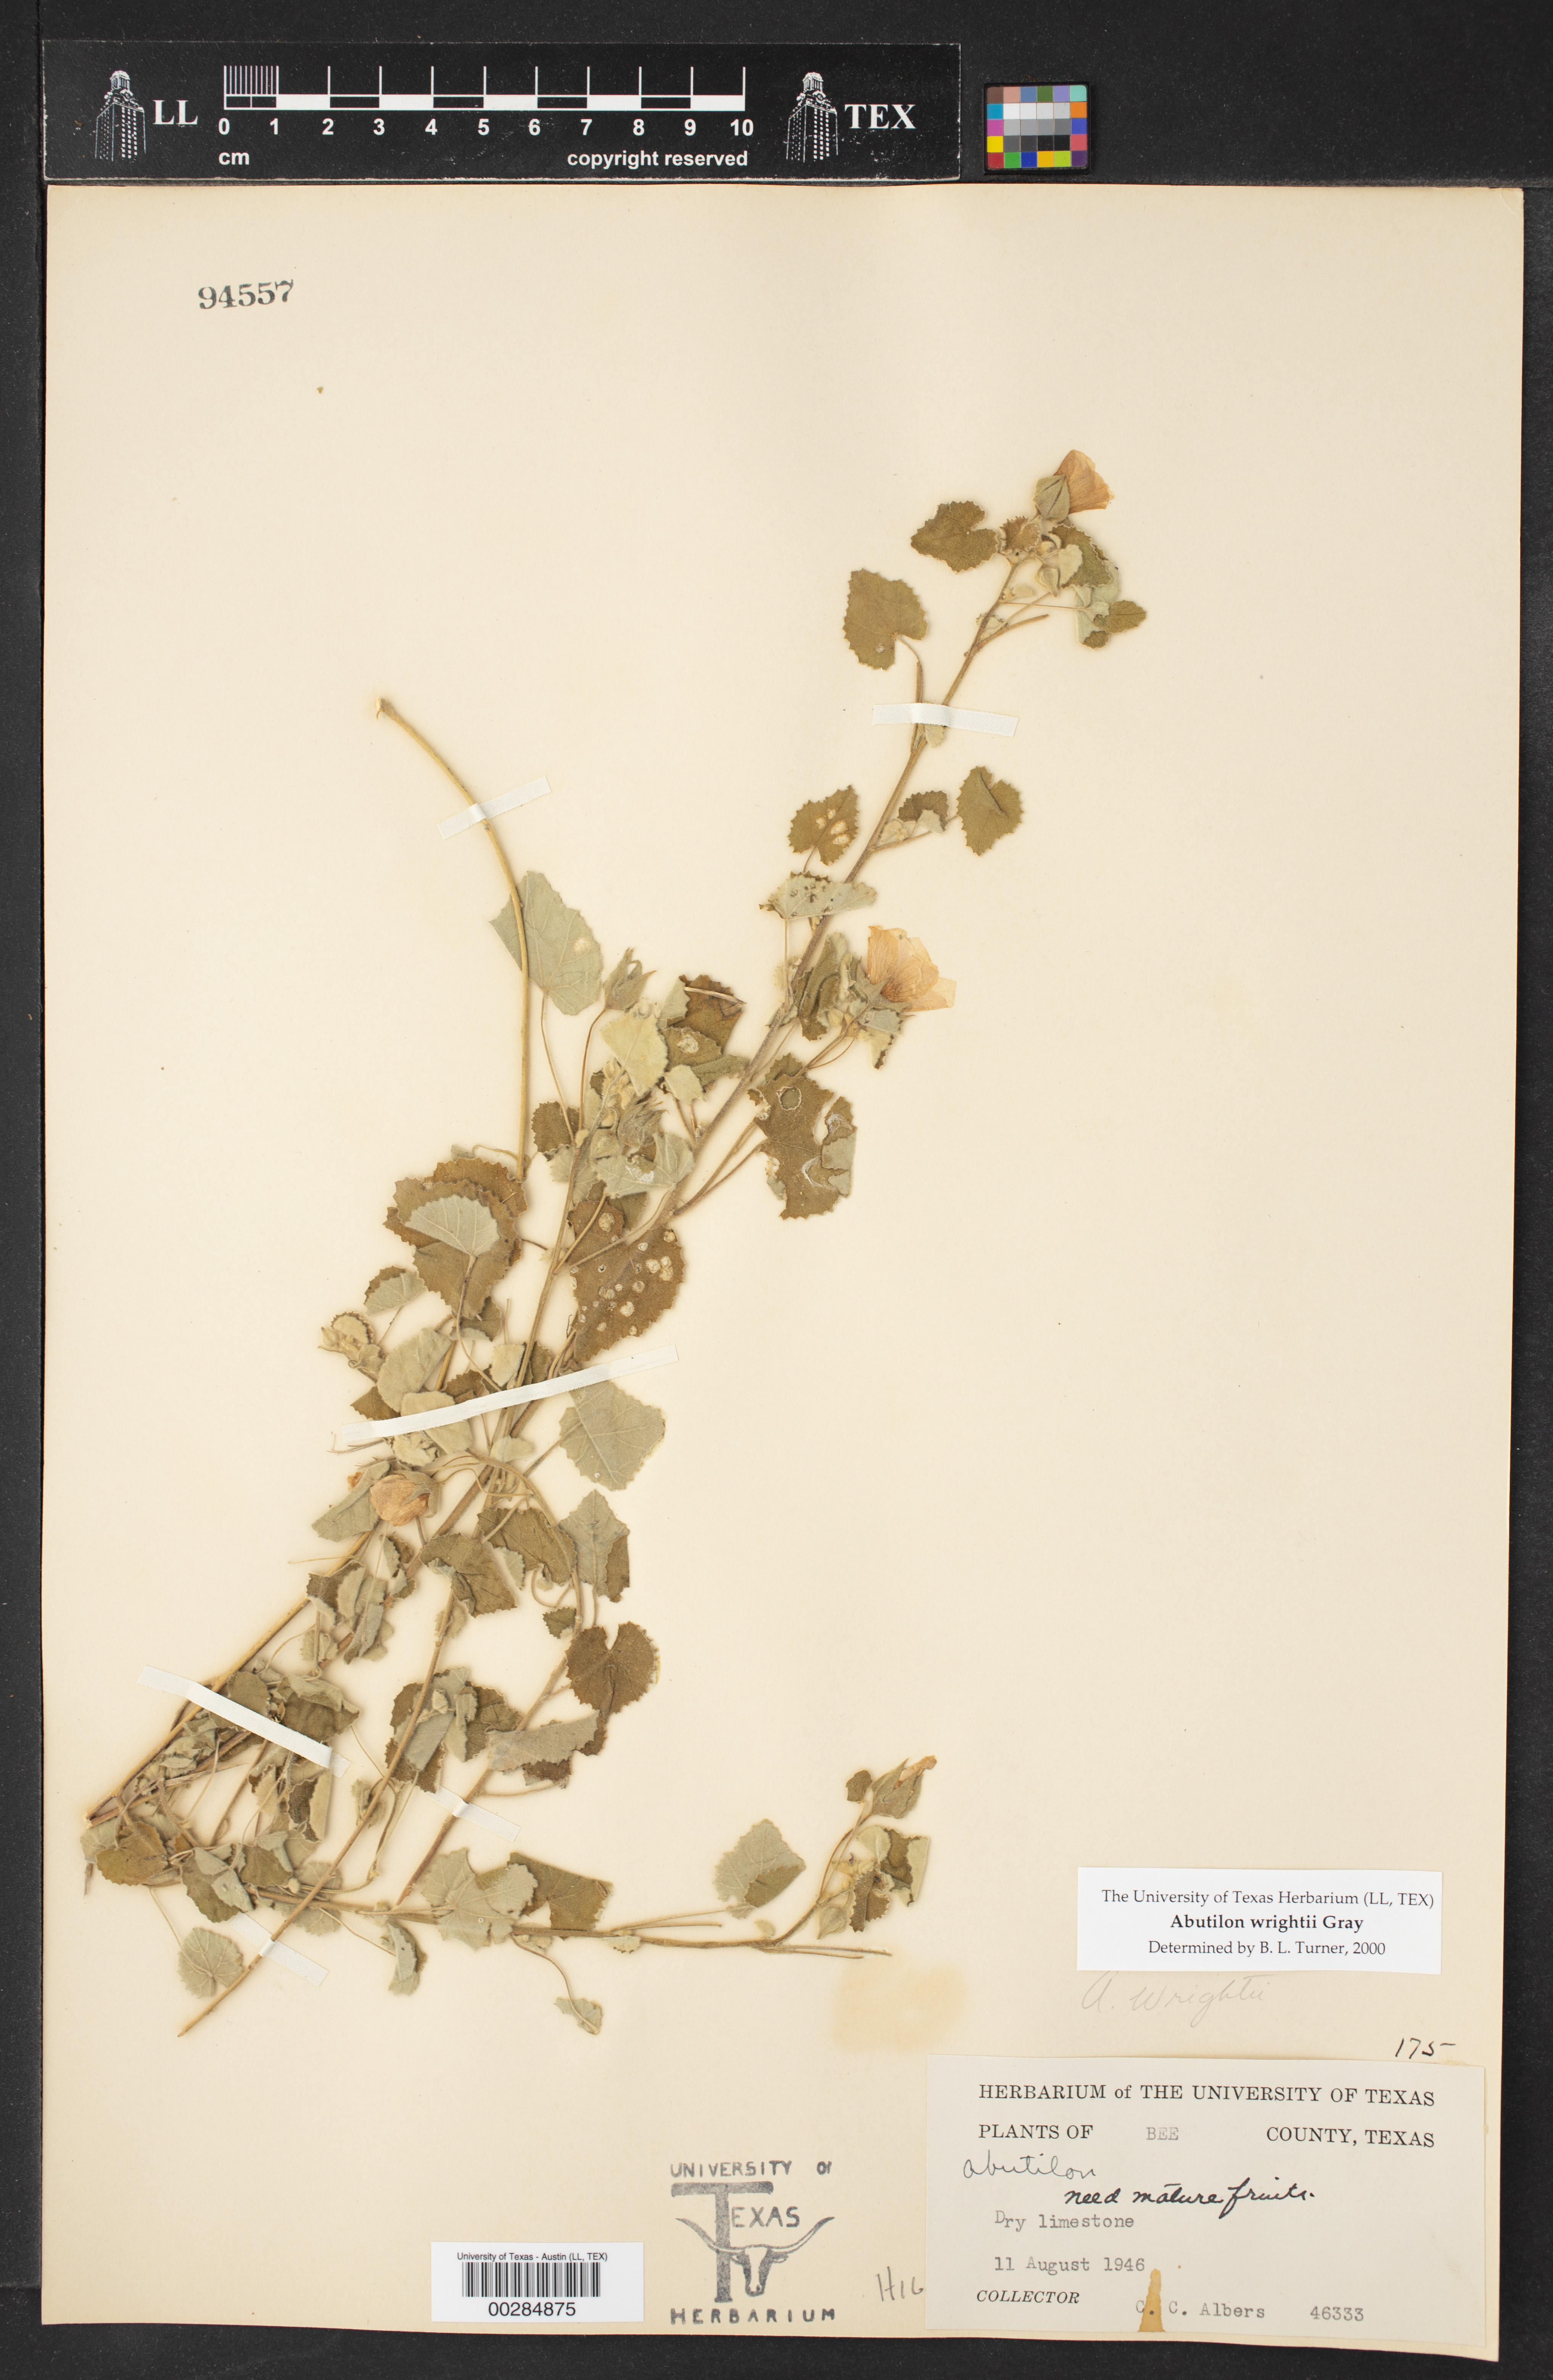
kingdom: Plantae
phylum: Tracheophyta
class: Magnoliopsida
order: Malvales
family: Malvaceae
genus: Abutilon
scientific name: Abutilon wrightii
